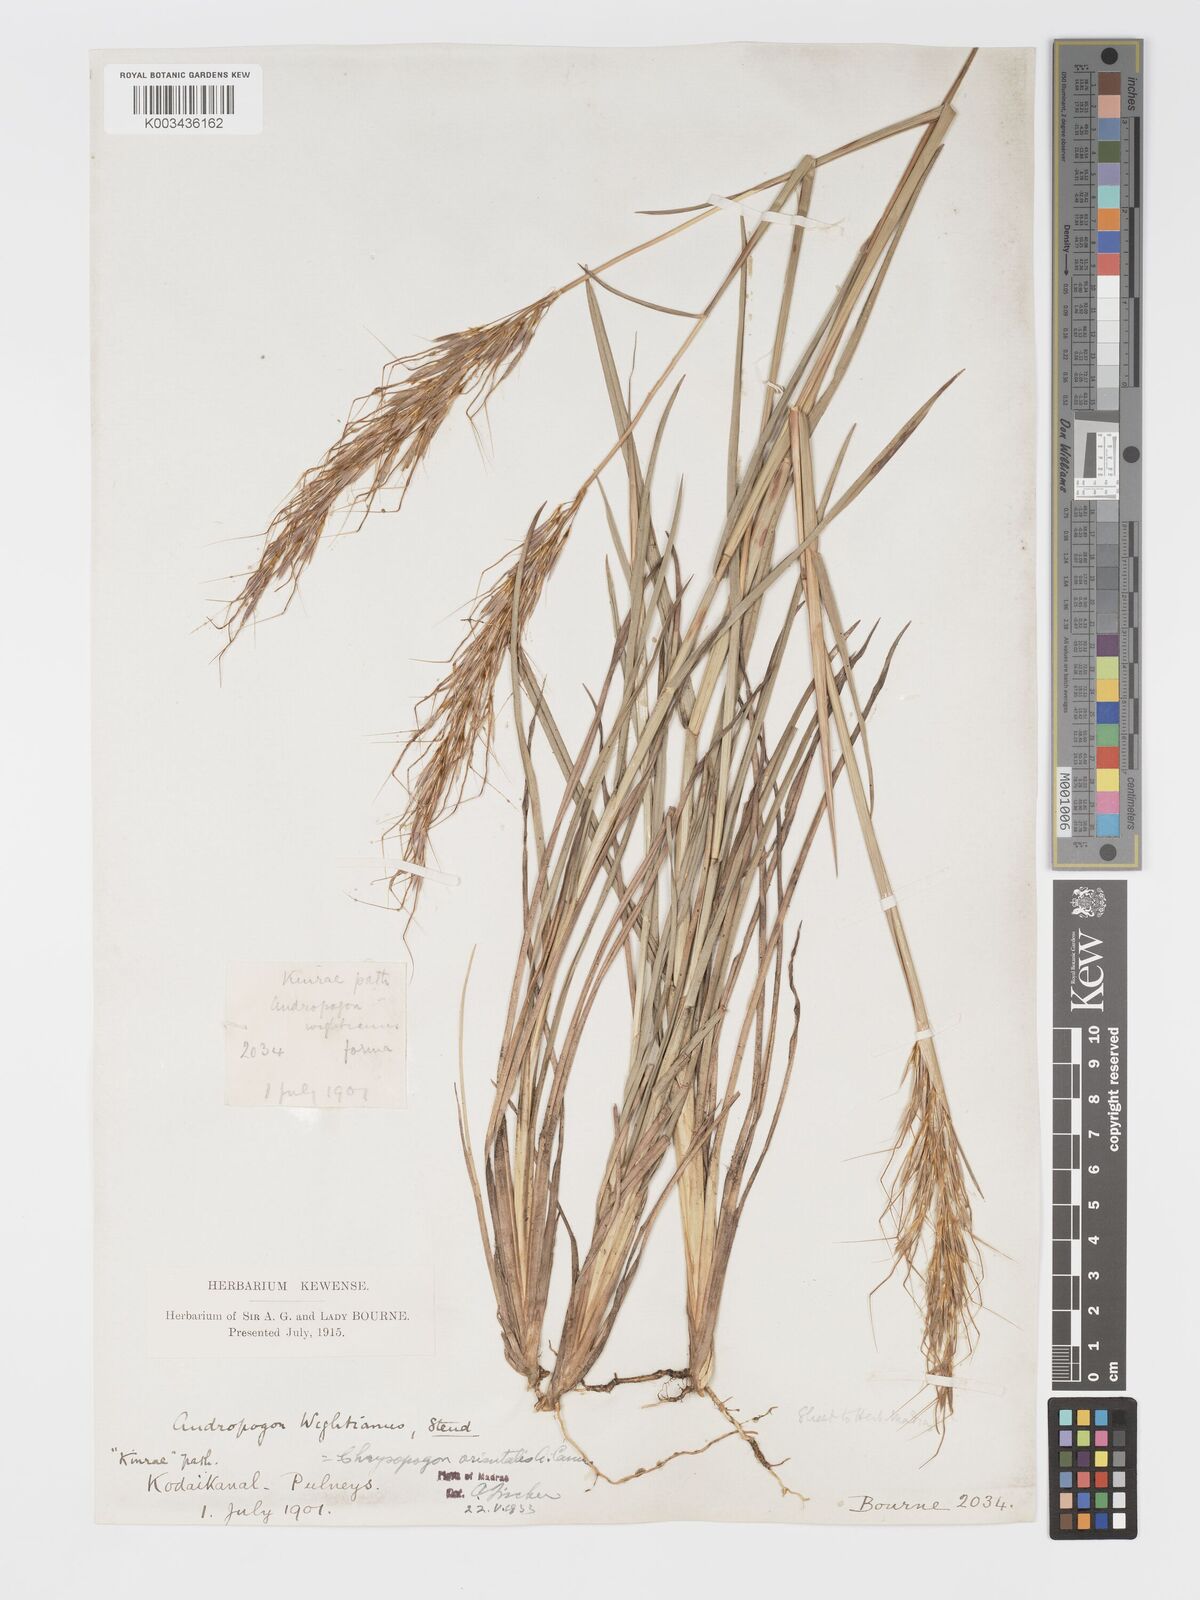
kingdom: Plantae
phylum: Tracheophyta
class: Liliopsida
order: Poales
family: Poaceae
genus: Chrysopogon
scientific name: Chrysopogon orientalis
